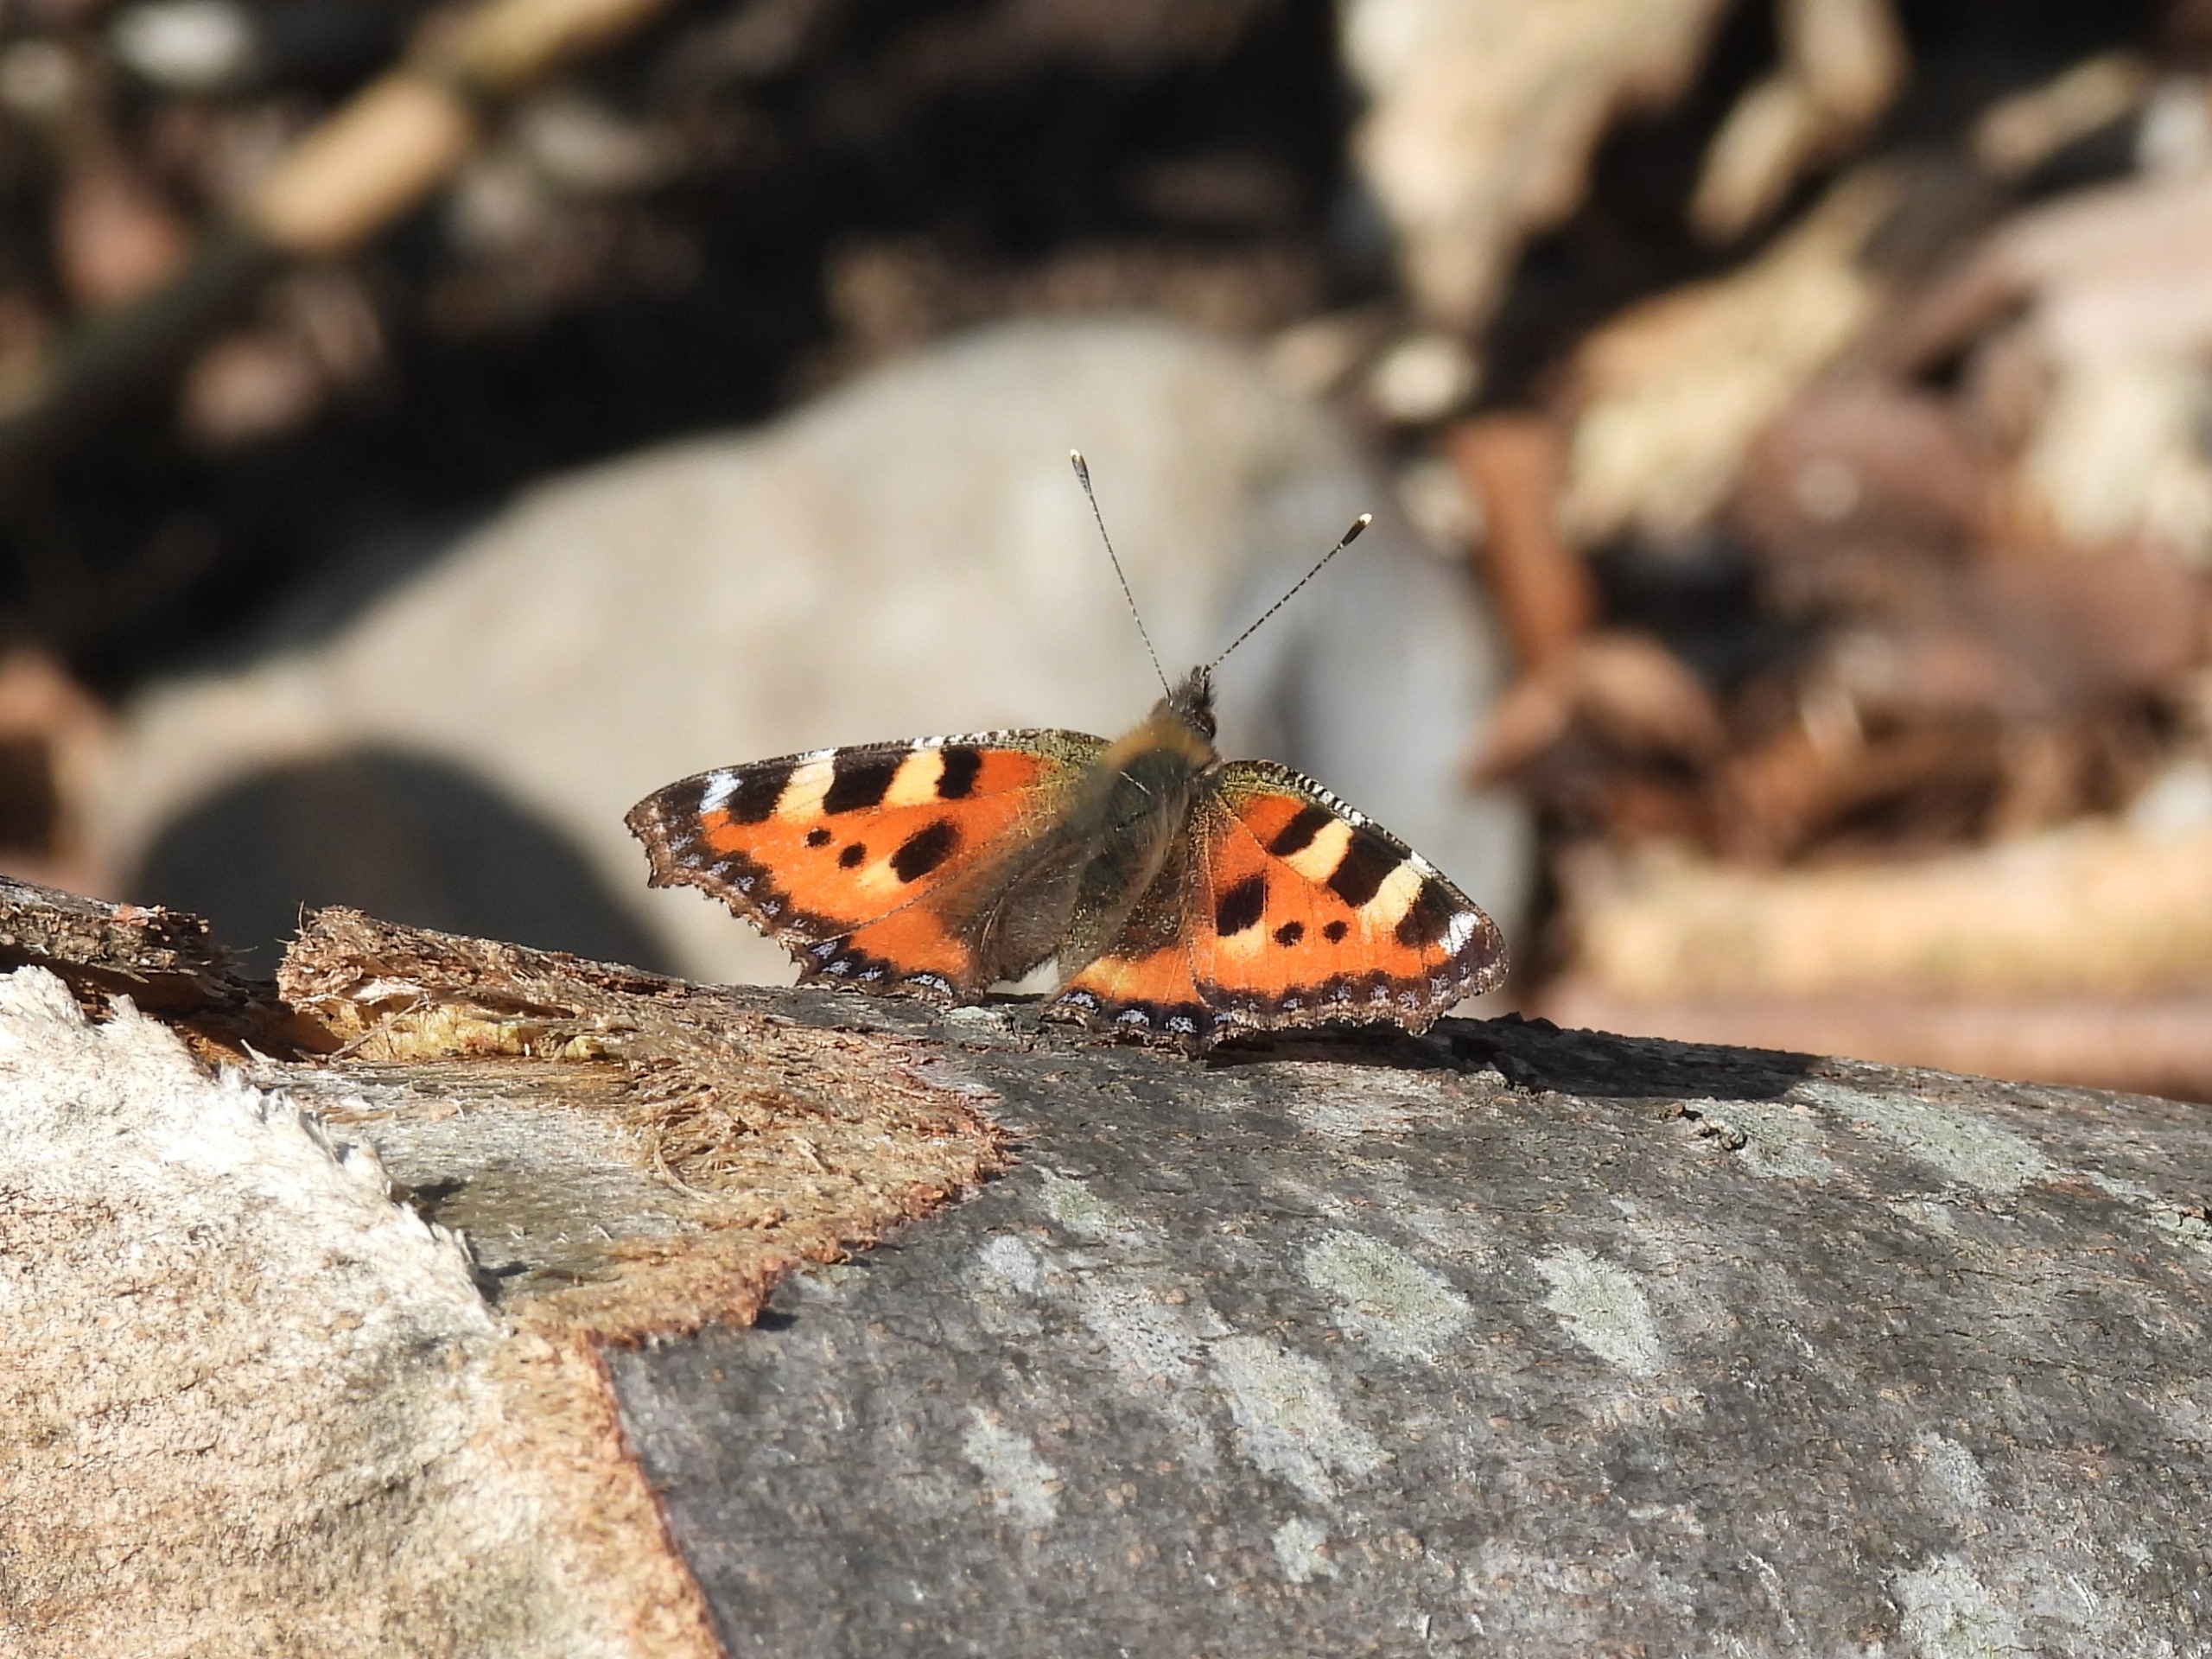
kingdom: Animalia
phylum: Arthropoda
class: Insecta
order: Lepidoptera
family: Nymphalidae
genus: Aglais
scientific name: Aglais urticae
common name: Nældens takvinge
